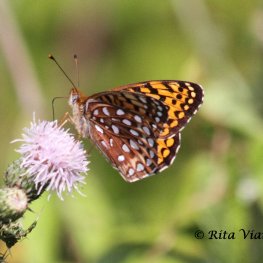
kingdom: Animalia
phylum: Arthropoda
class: Insecta
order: Lepidoptera
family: Nymphalidae
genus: Speyeria
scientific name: Speyeria atlantis
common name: Atlantis Fritillary
